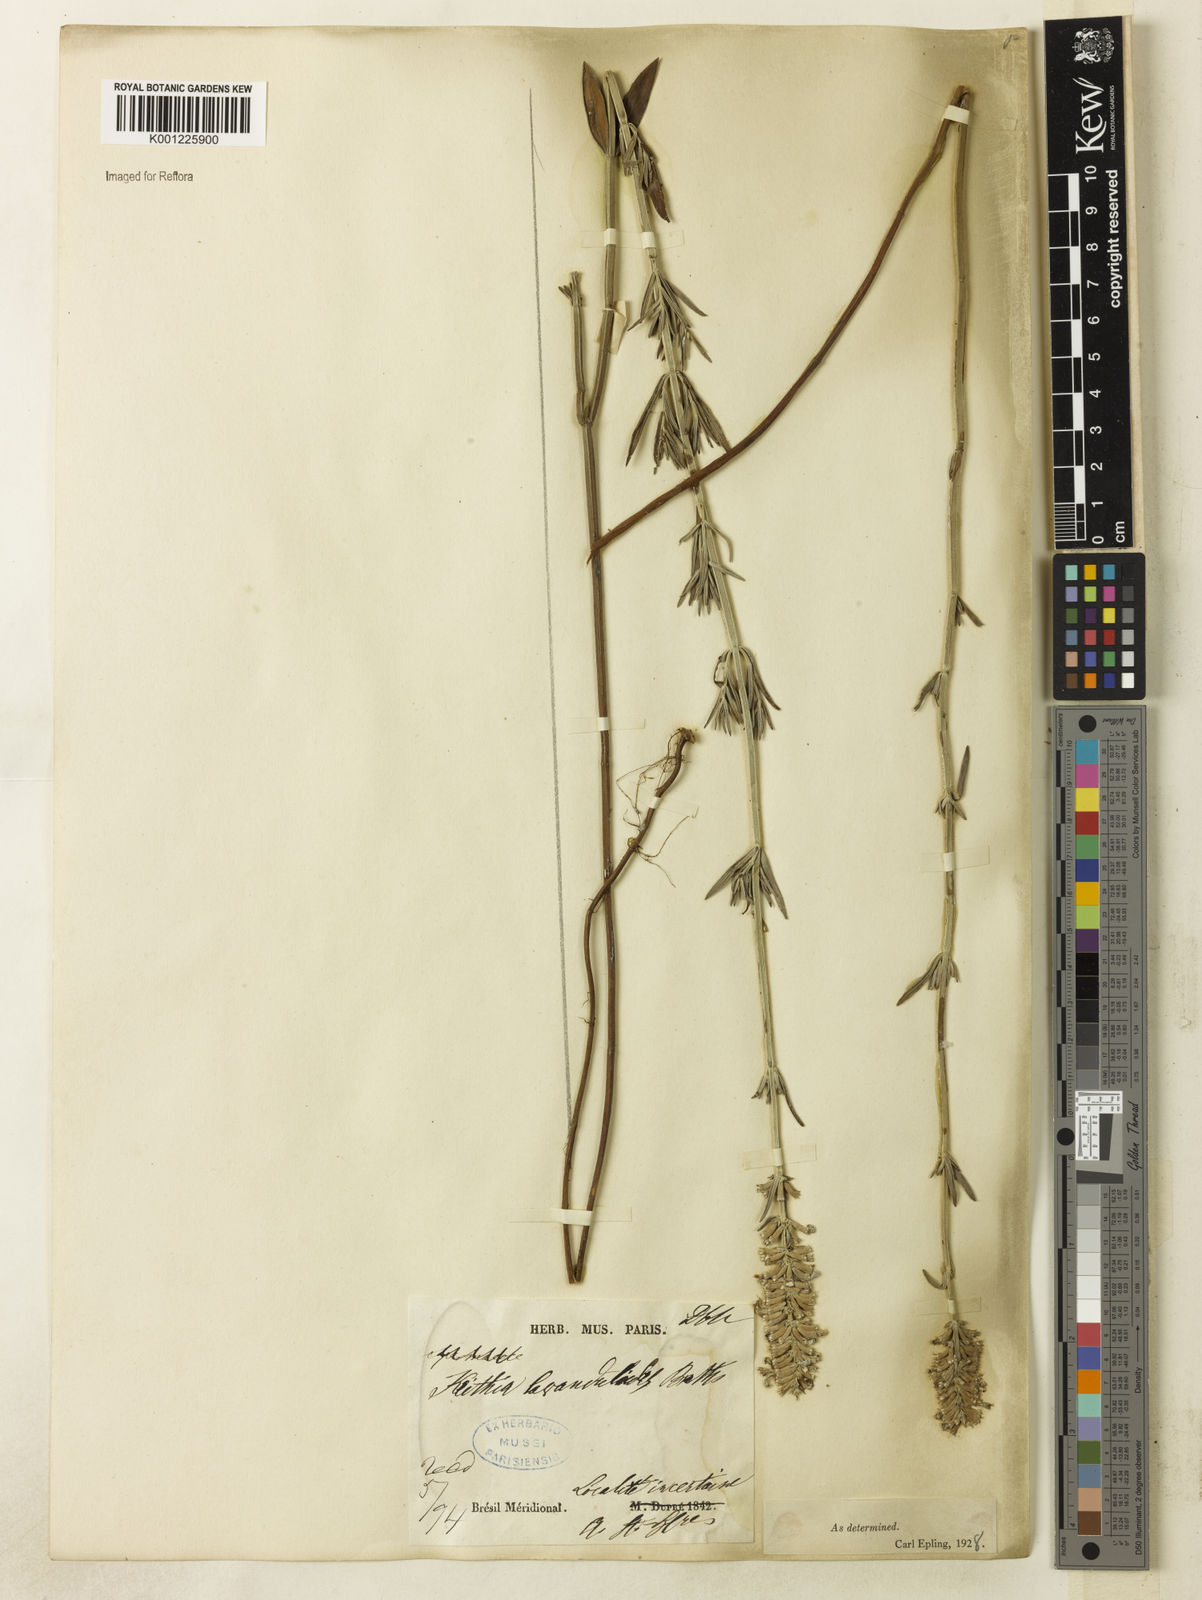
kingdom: Plantae
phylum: Tracheophyta
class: Magnoliopsida
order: Lamiales
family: Lamiaceae
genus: Rhabdocaulon
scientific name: Rhabdocaulon lavanduloides
